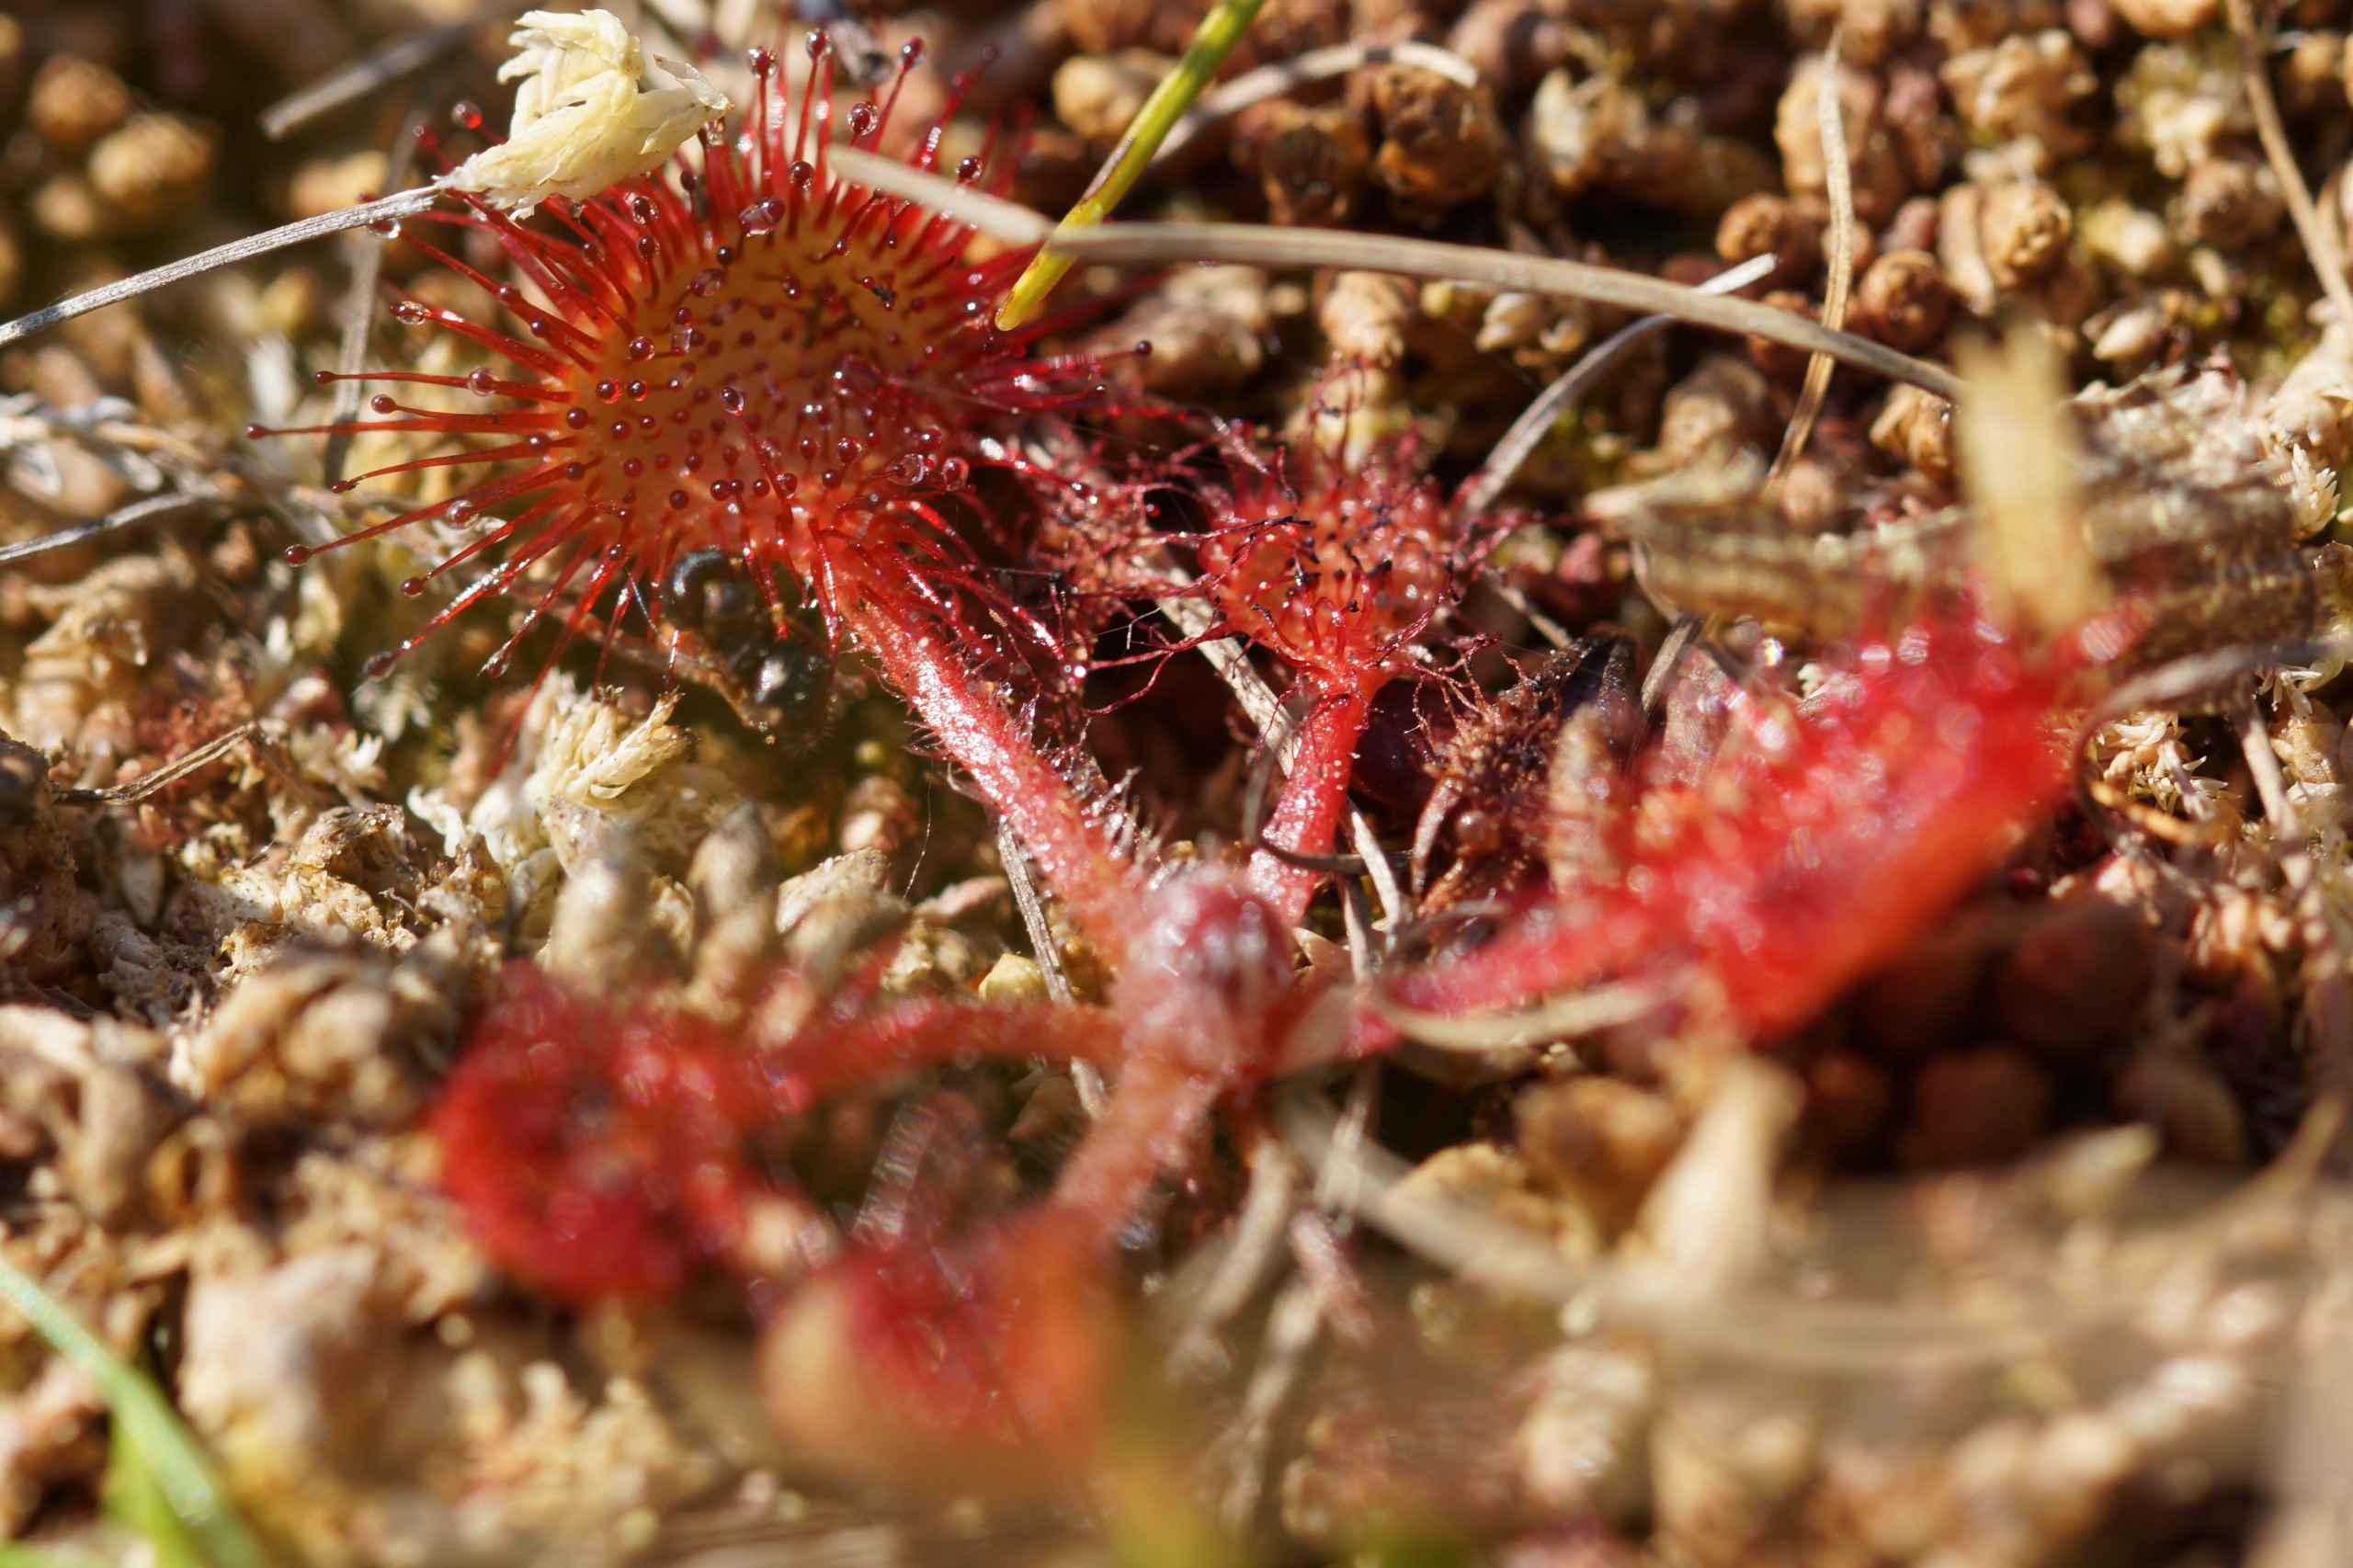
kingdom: Plantae
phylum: Tracheophyta
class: Magnoliopsida
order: Caryophyllales
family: Droseraceae
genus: Drosera
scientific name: Drosera rotundifolia
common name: Rundbladet soldug
